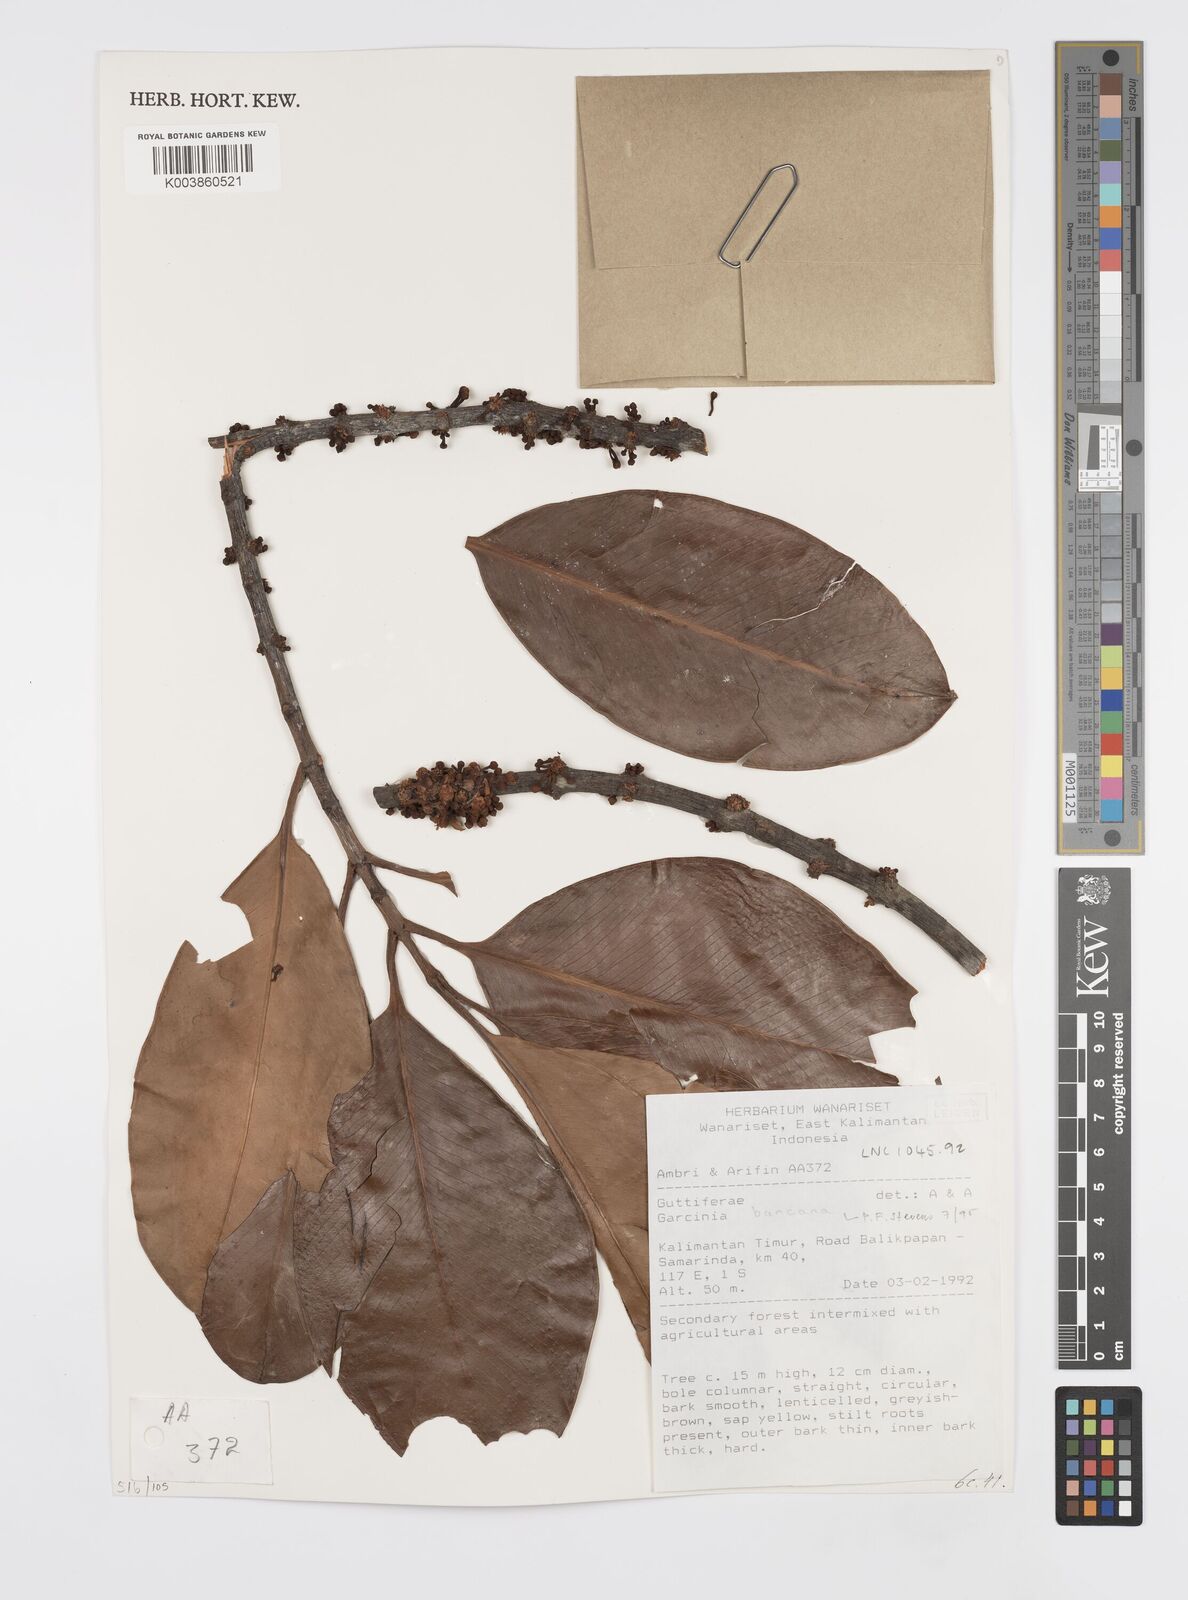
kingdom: Plantae
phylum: Tracheophyta
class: Magnoliopsida
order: Malpighiales
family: Clusiaceae
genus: Garcinia
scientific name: Garcinia bancana
